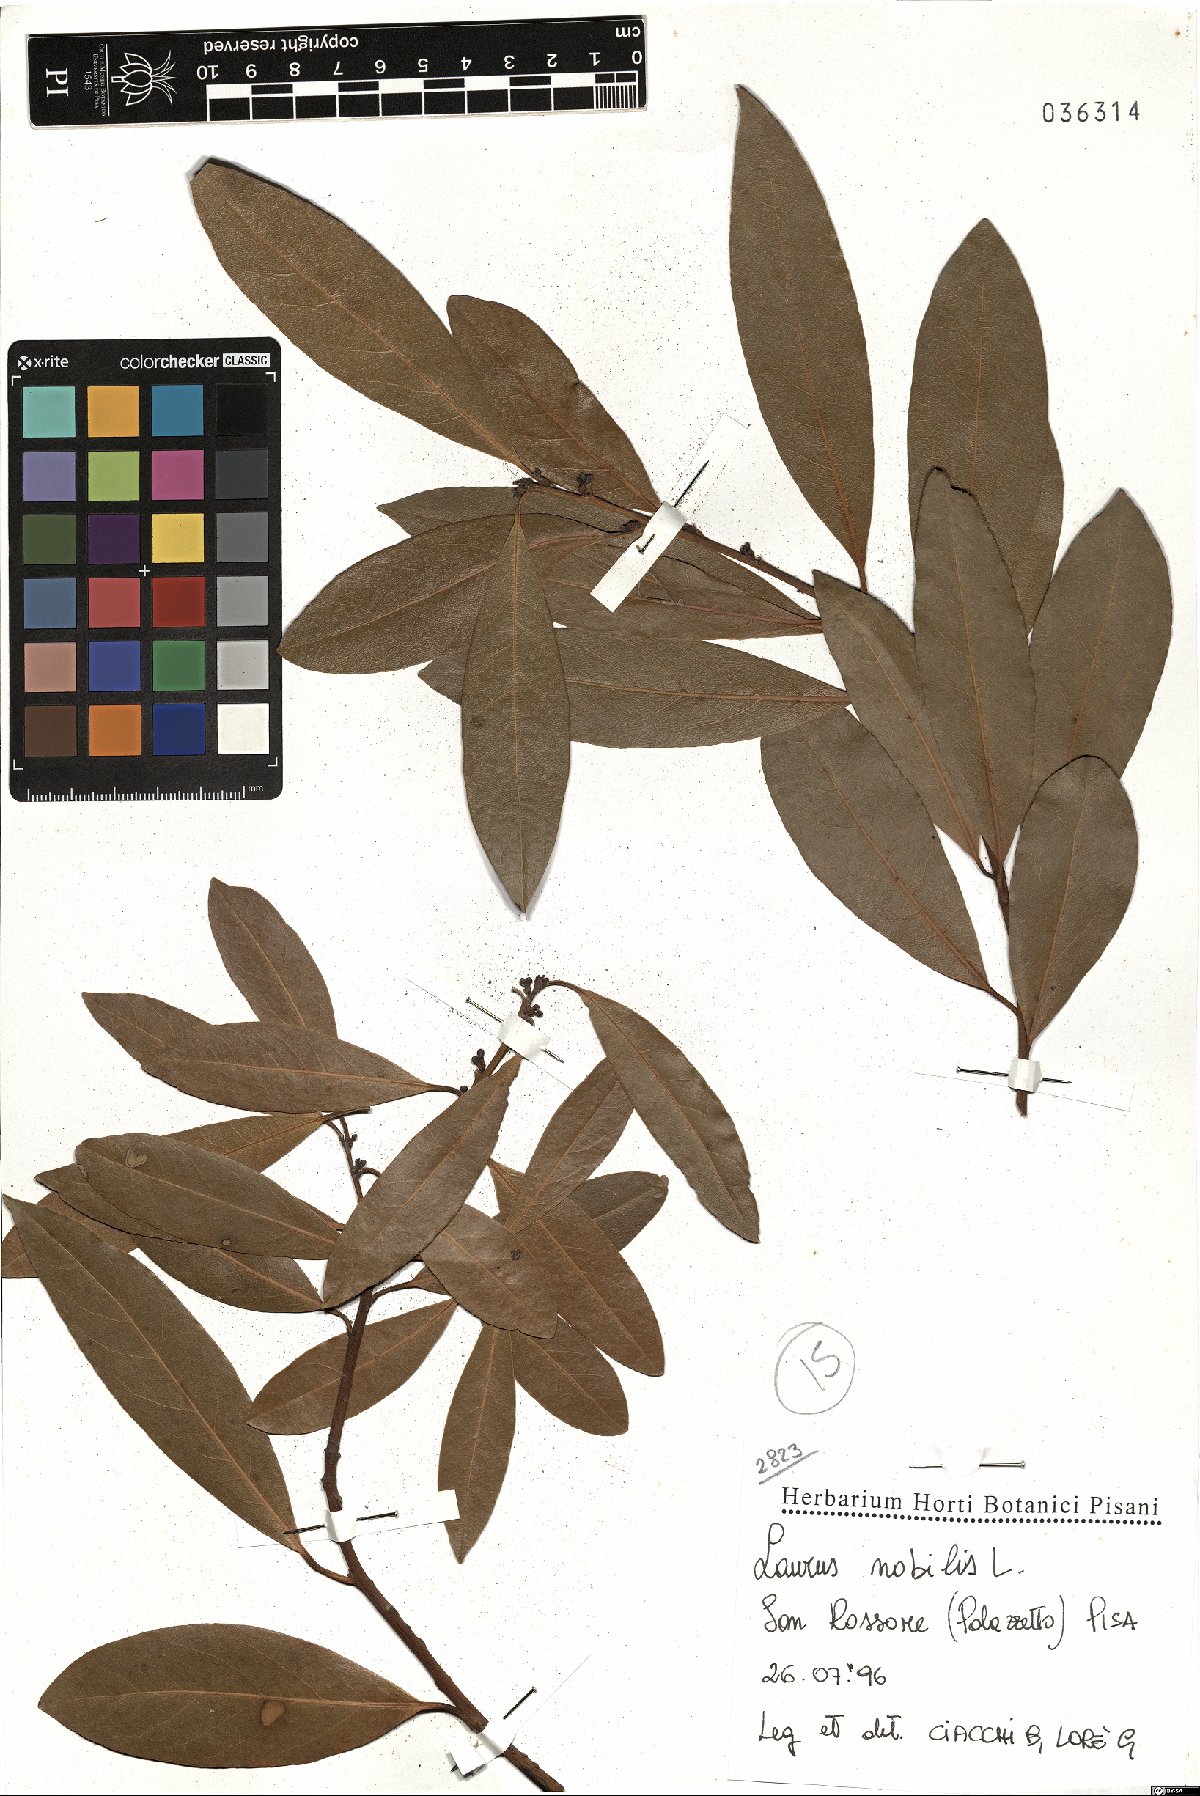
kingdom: Plantae
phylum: Tracheophyta
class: Magnoliopsida
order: Laurales
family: Lauraceae
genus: Laurus
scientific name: Laurus nobilis
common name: Bay
